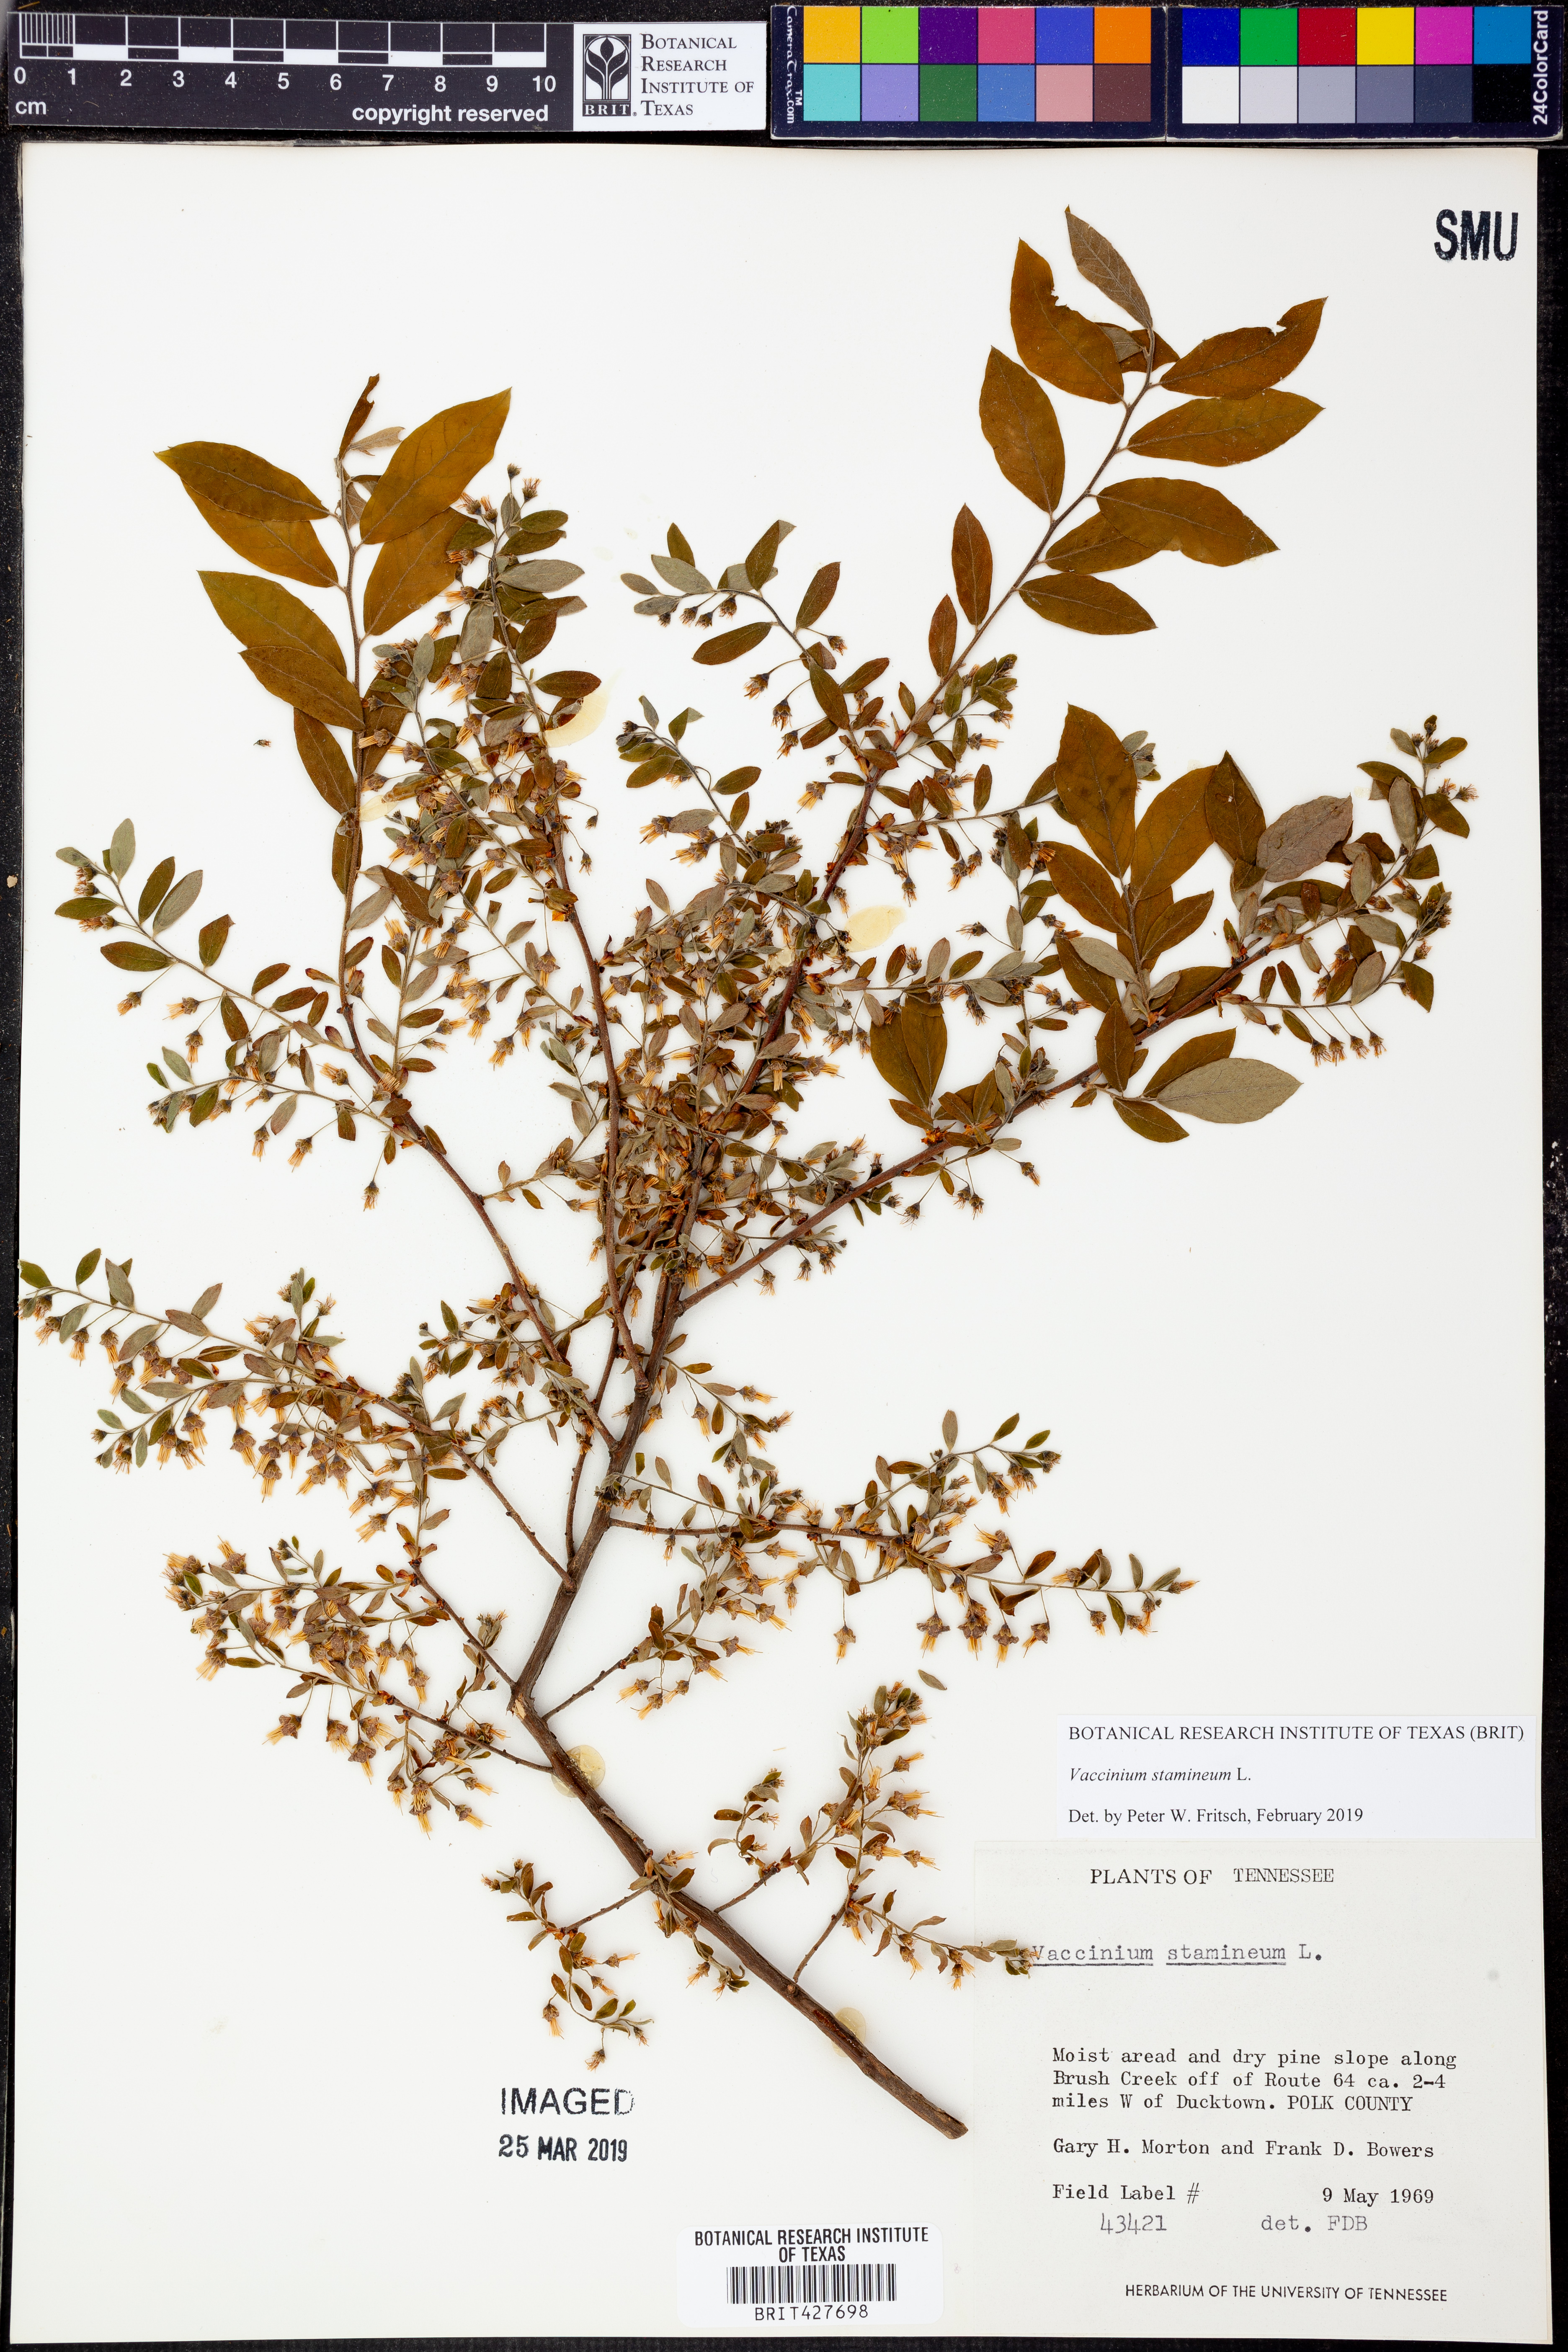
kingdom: Plantae
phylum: Tracheophyta
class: Magnoliopsida
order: Ericales
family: Ericaceae
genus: Vaccinium
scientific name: Vaccinium stamineum
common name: Deerberry
